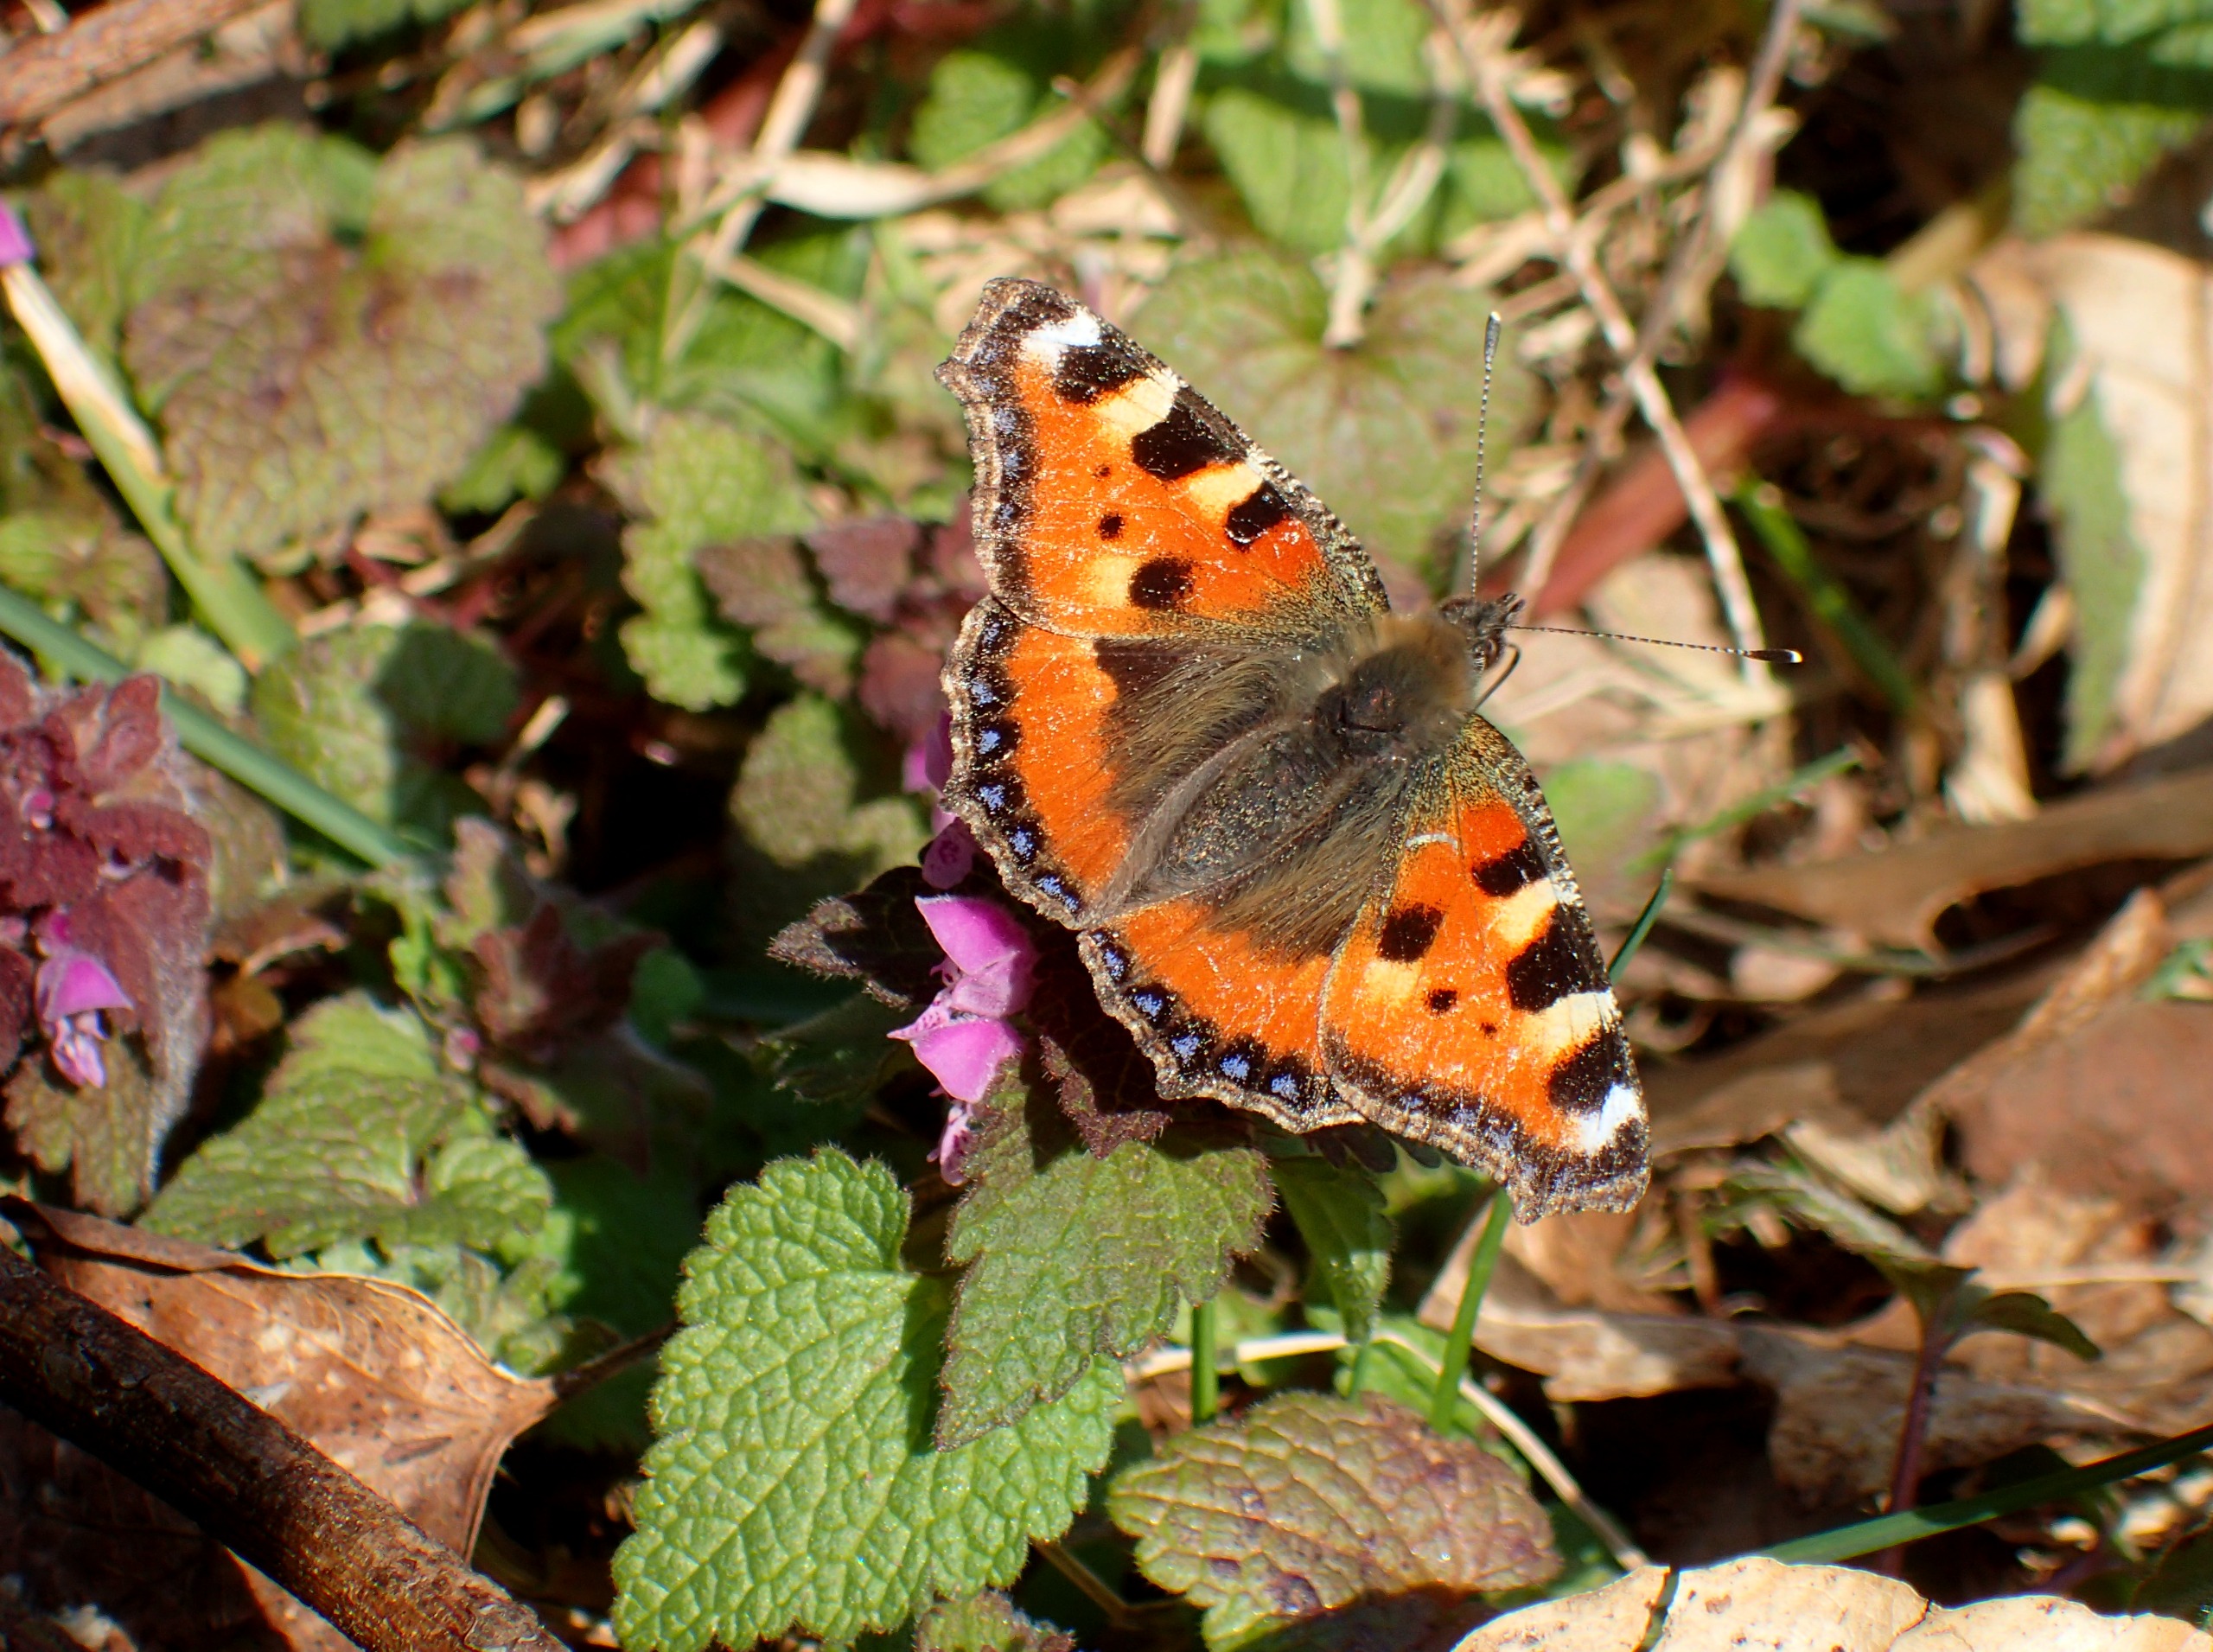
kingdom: Animalia
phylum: Arthropoda
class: Insecta
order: Lepidoptera
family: Nymphalidae
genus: Aglais
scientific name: Aglais urticae
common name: Nældens takvinge
